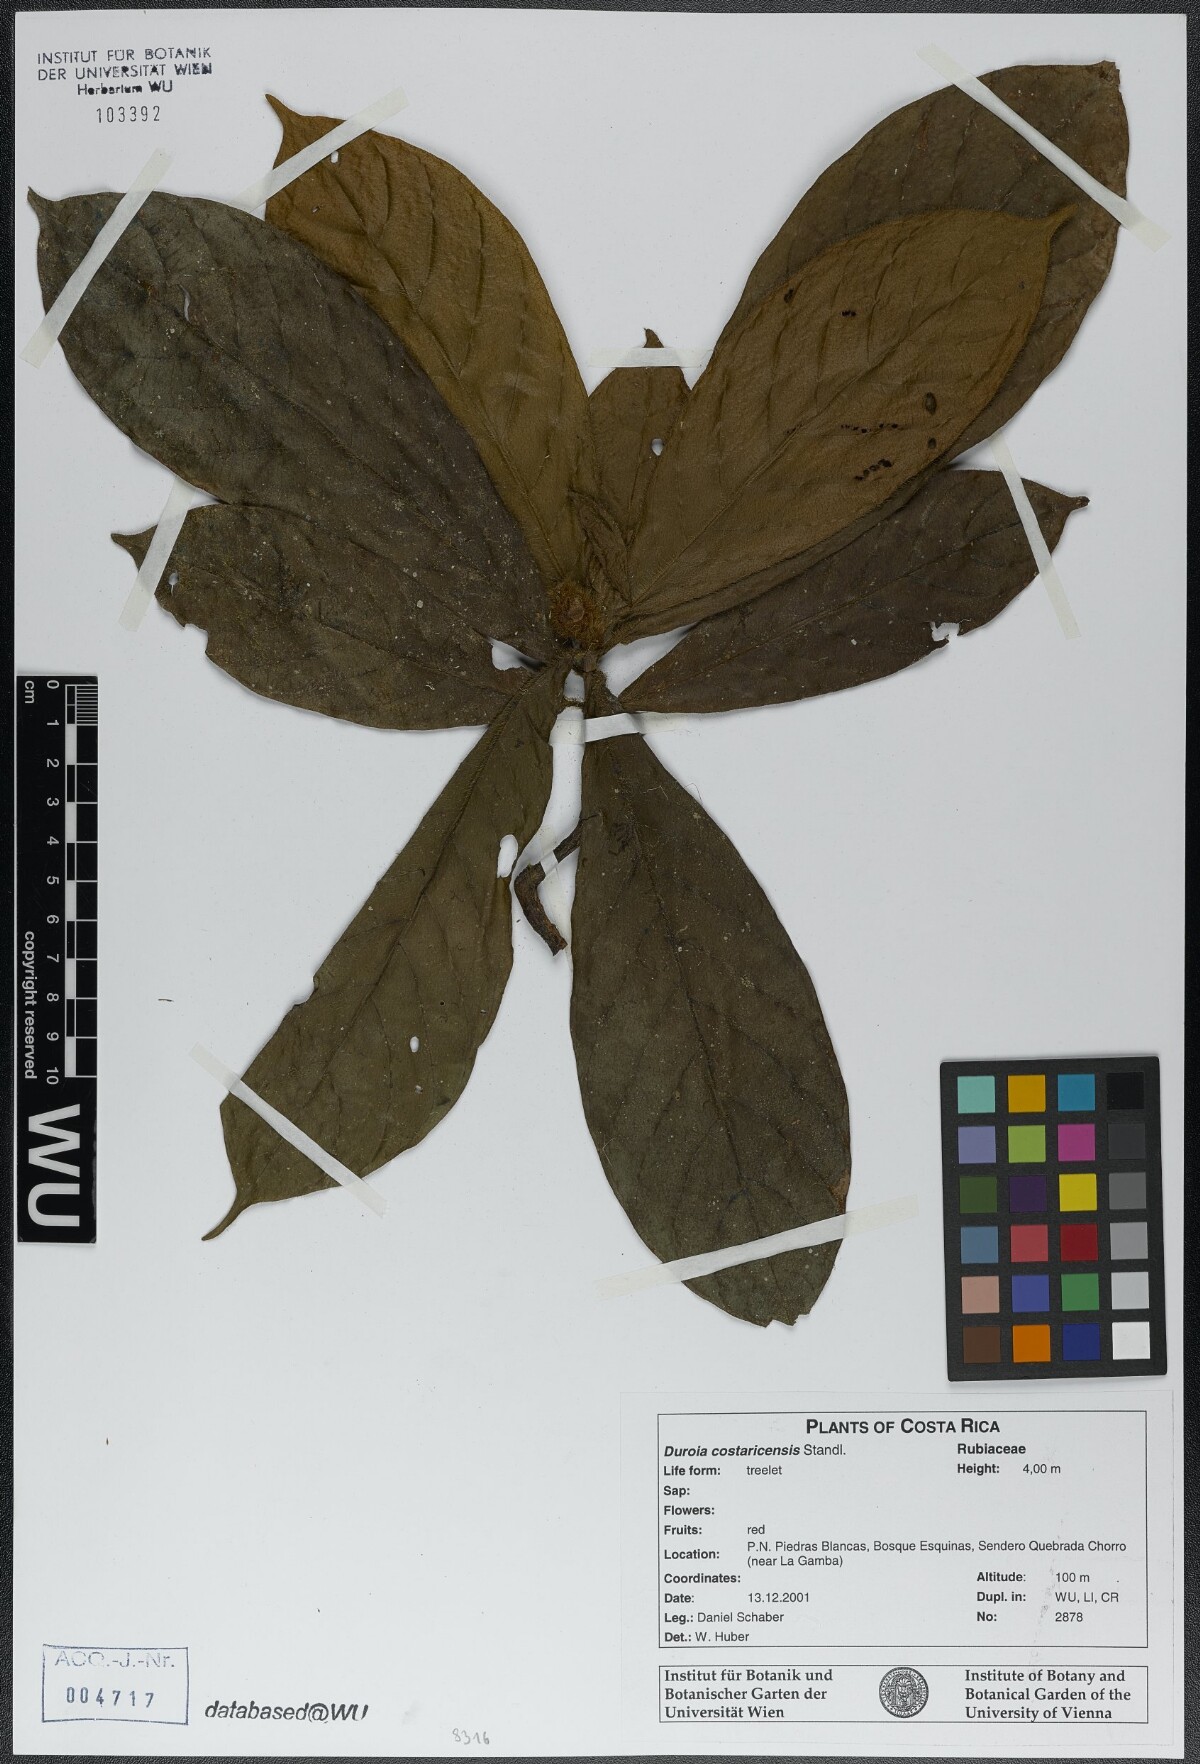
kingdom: Plantae
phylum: Tracheophyta
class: Magnoliopsida
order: Gentianales
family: Rubiaceae
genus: Duroia
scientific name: Duroia costaricensis
